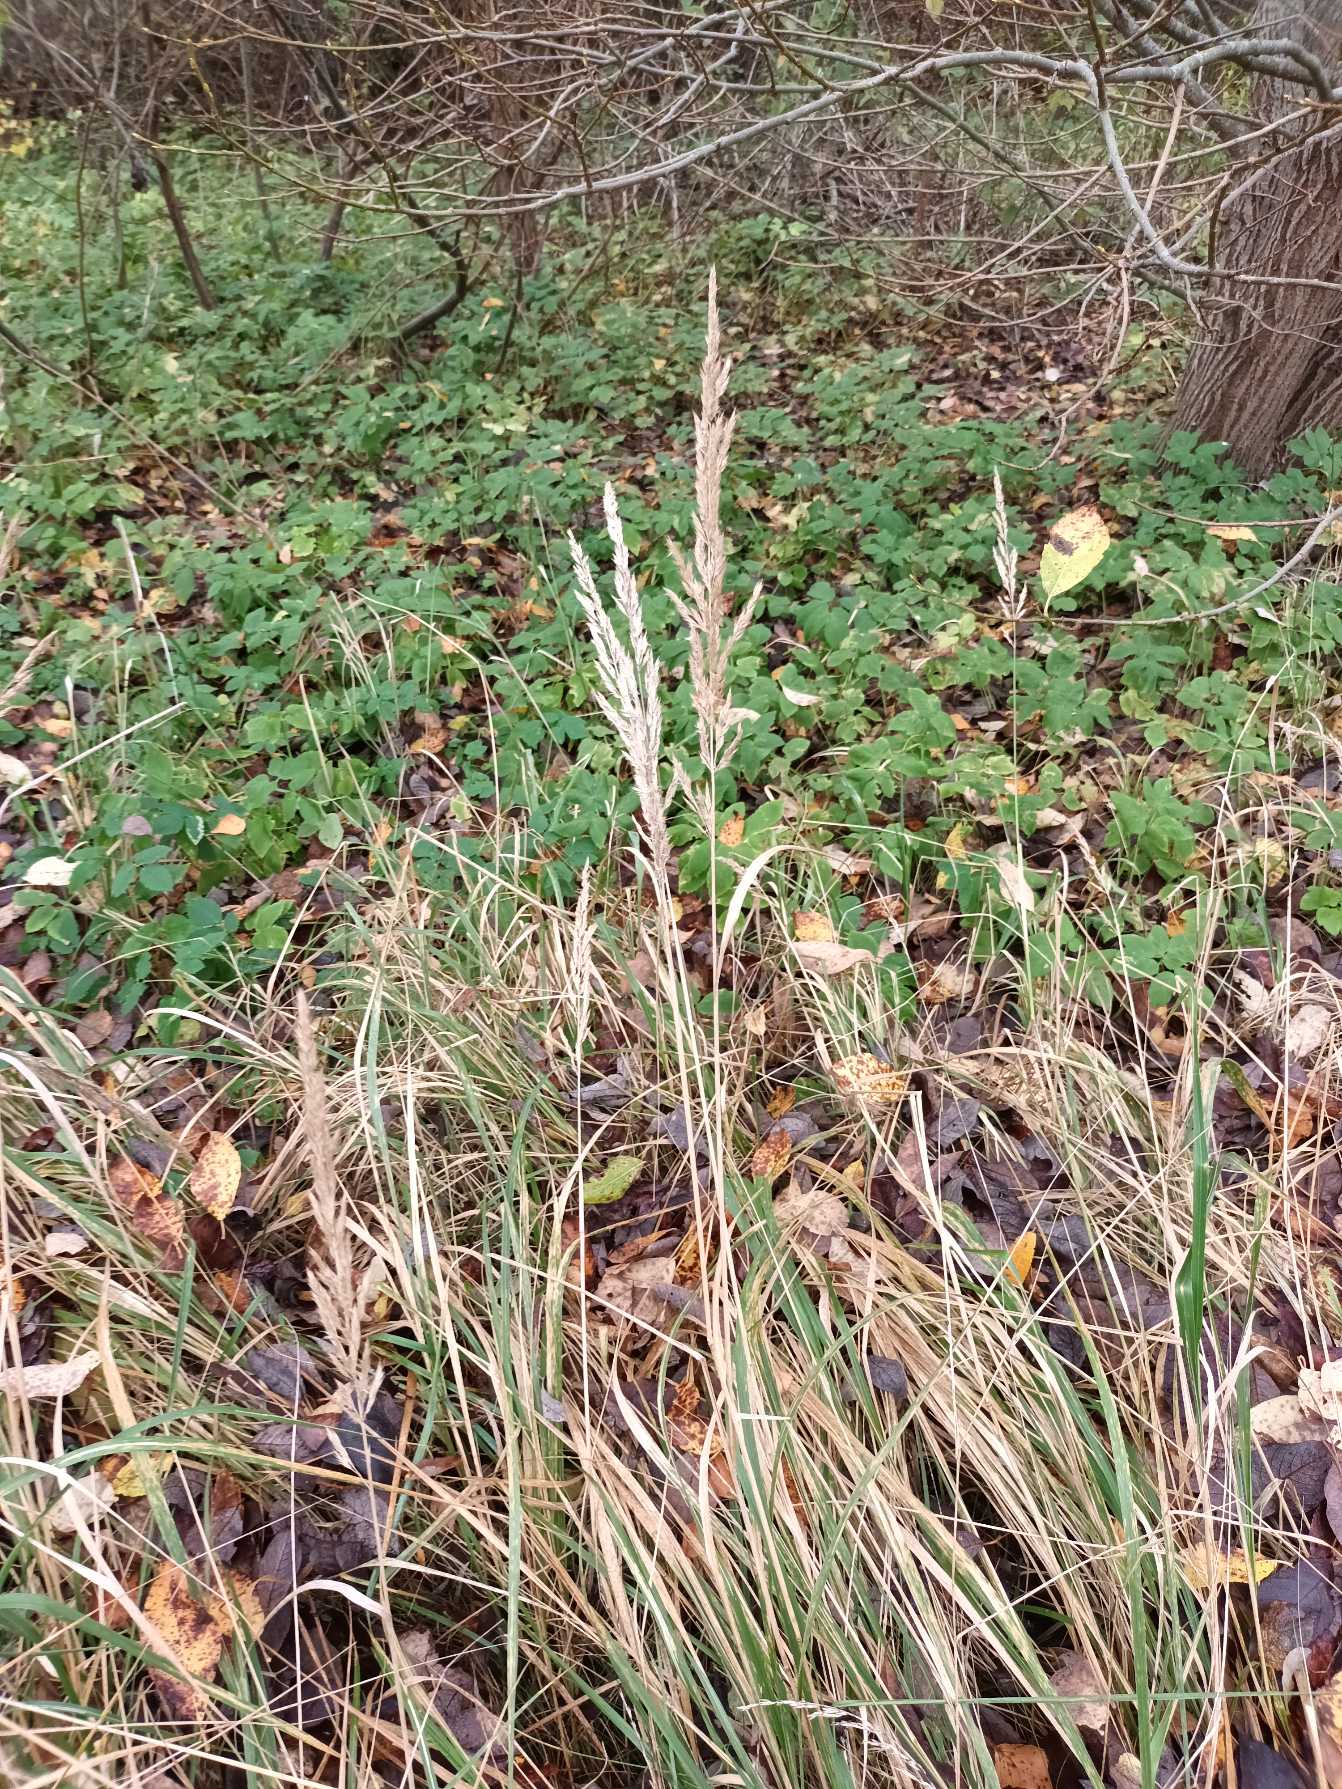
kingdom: Plantae
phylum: Tracheophyta
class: Liliopsida
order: Poales
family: Poaceae
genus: Calamagrostis
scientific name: Calamagrostis epigejos
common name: Bjerg-rørhvene
